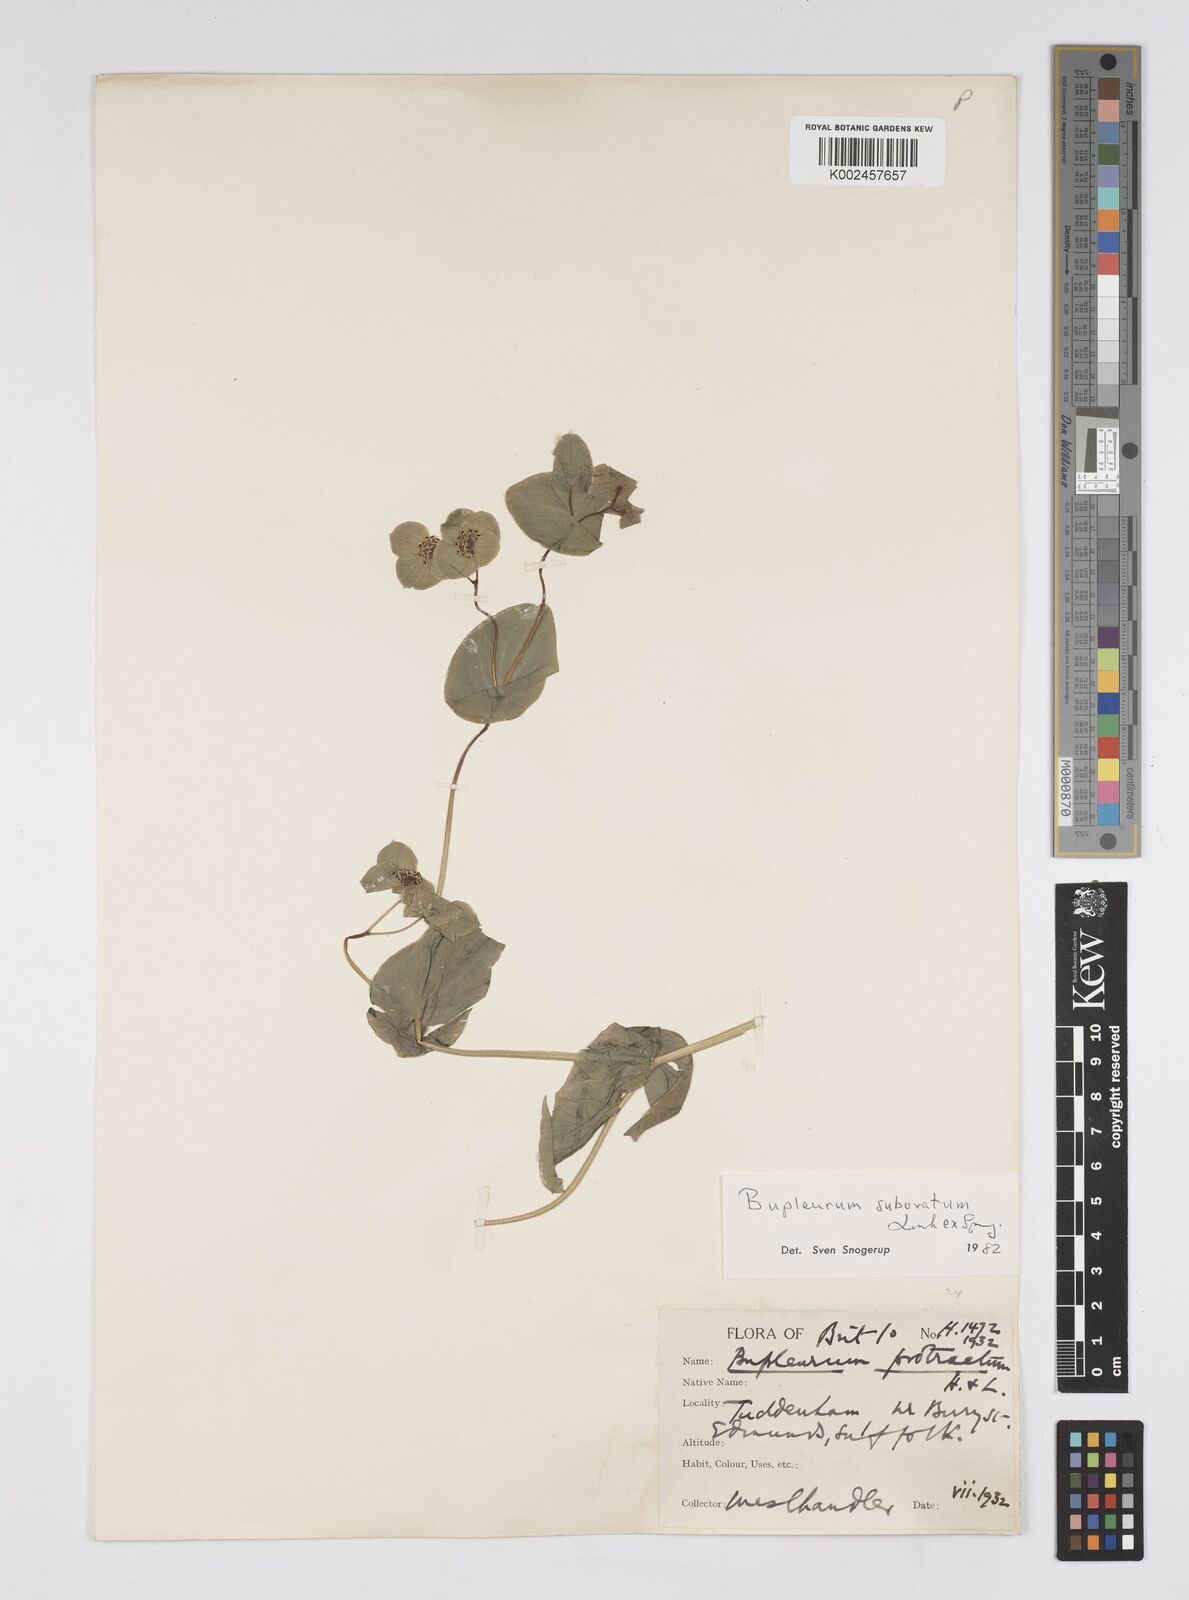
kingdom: Plantae
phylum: Tracheophyta
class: Magnoliopsida
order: Apiales
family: Apiaceae
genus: Bupleurum
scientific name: Bupleurum subovatum
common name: False thorow-wax
